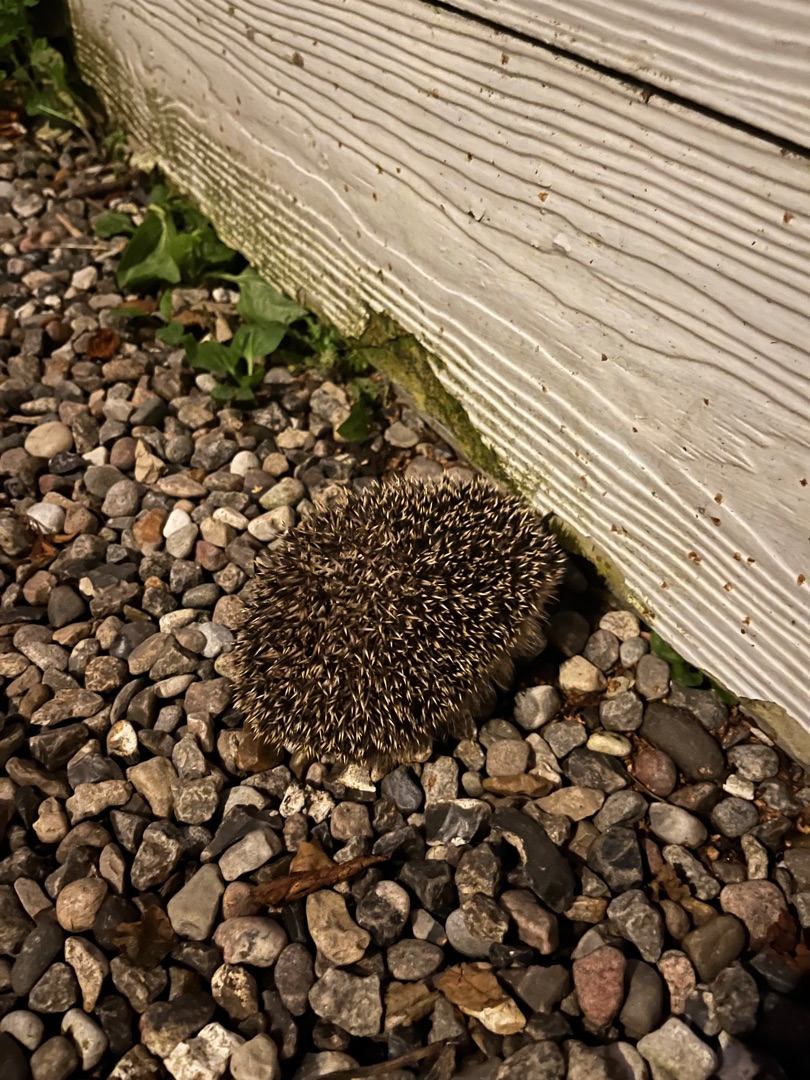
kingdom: Animalia
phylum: Chordata
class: Mammalia
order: Erinaceomorpha
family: Erinaceidae
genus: Erinaceus
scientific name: Erinaceus europaeus
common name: Pindsvin
